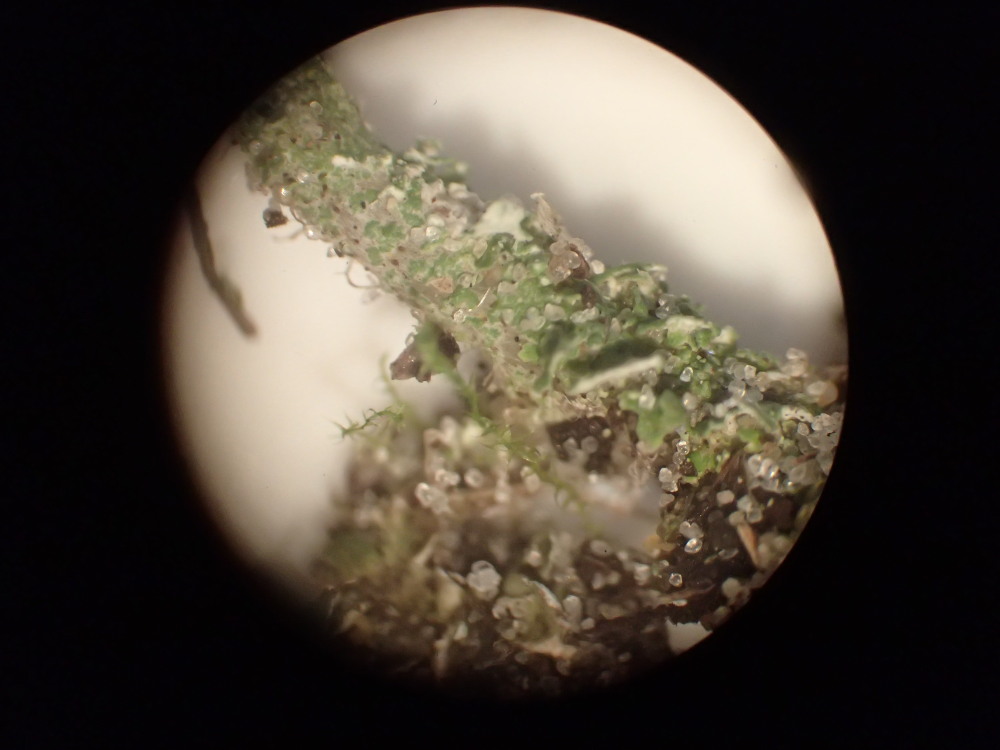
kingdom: Fungi
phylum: Ascomycota
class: Lecanoromycetes
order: Lecanorales
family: Cladoniaceae
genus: Cladonia
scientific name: Cladonia scabriuscula
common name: ru bægerlav
